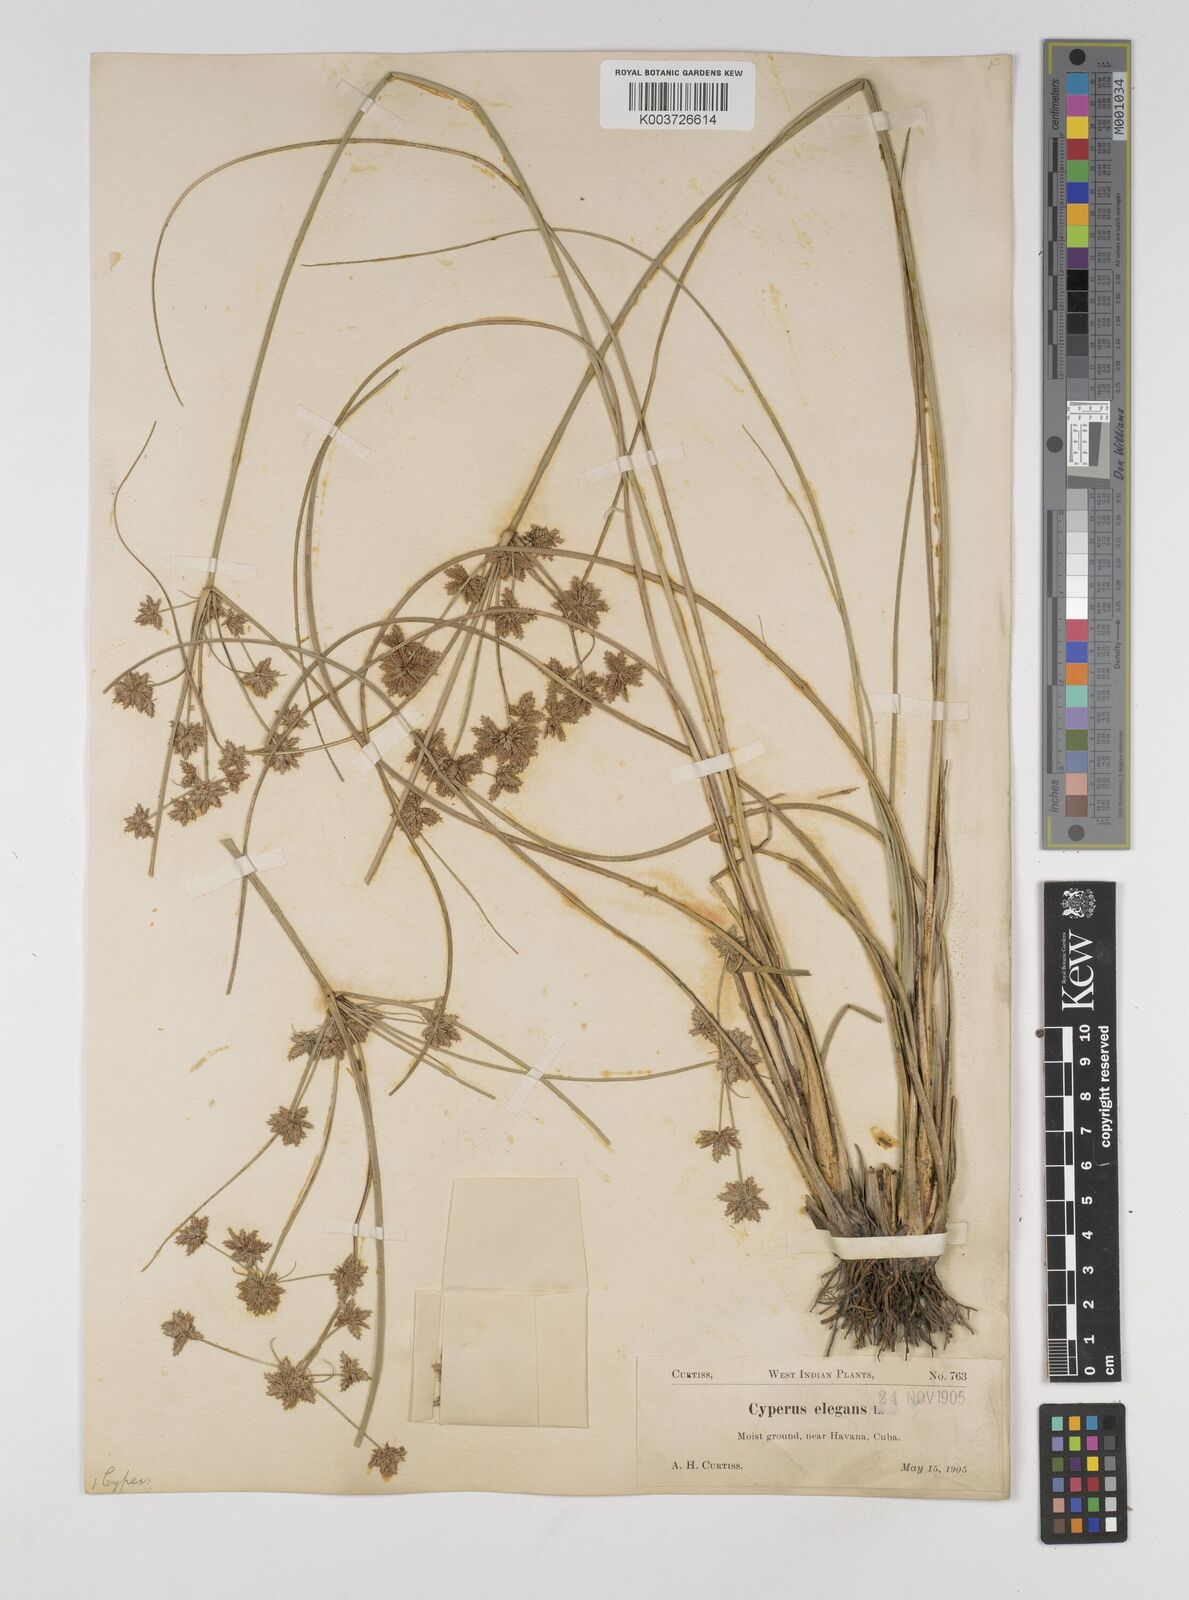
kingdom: Plantae
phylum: Tracheophyta
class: Liliopsida
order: Poales
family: Cyperaceae
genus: Cyperus
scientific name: Cyperus elegans
